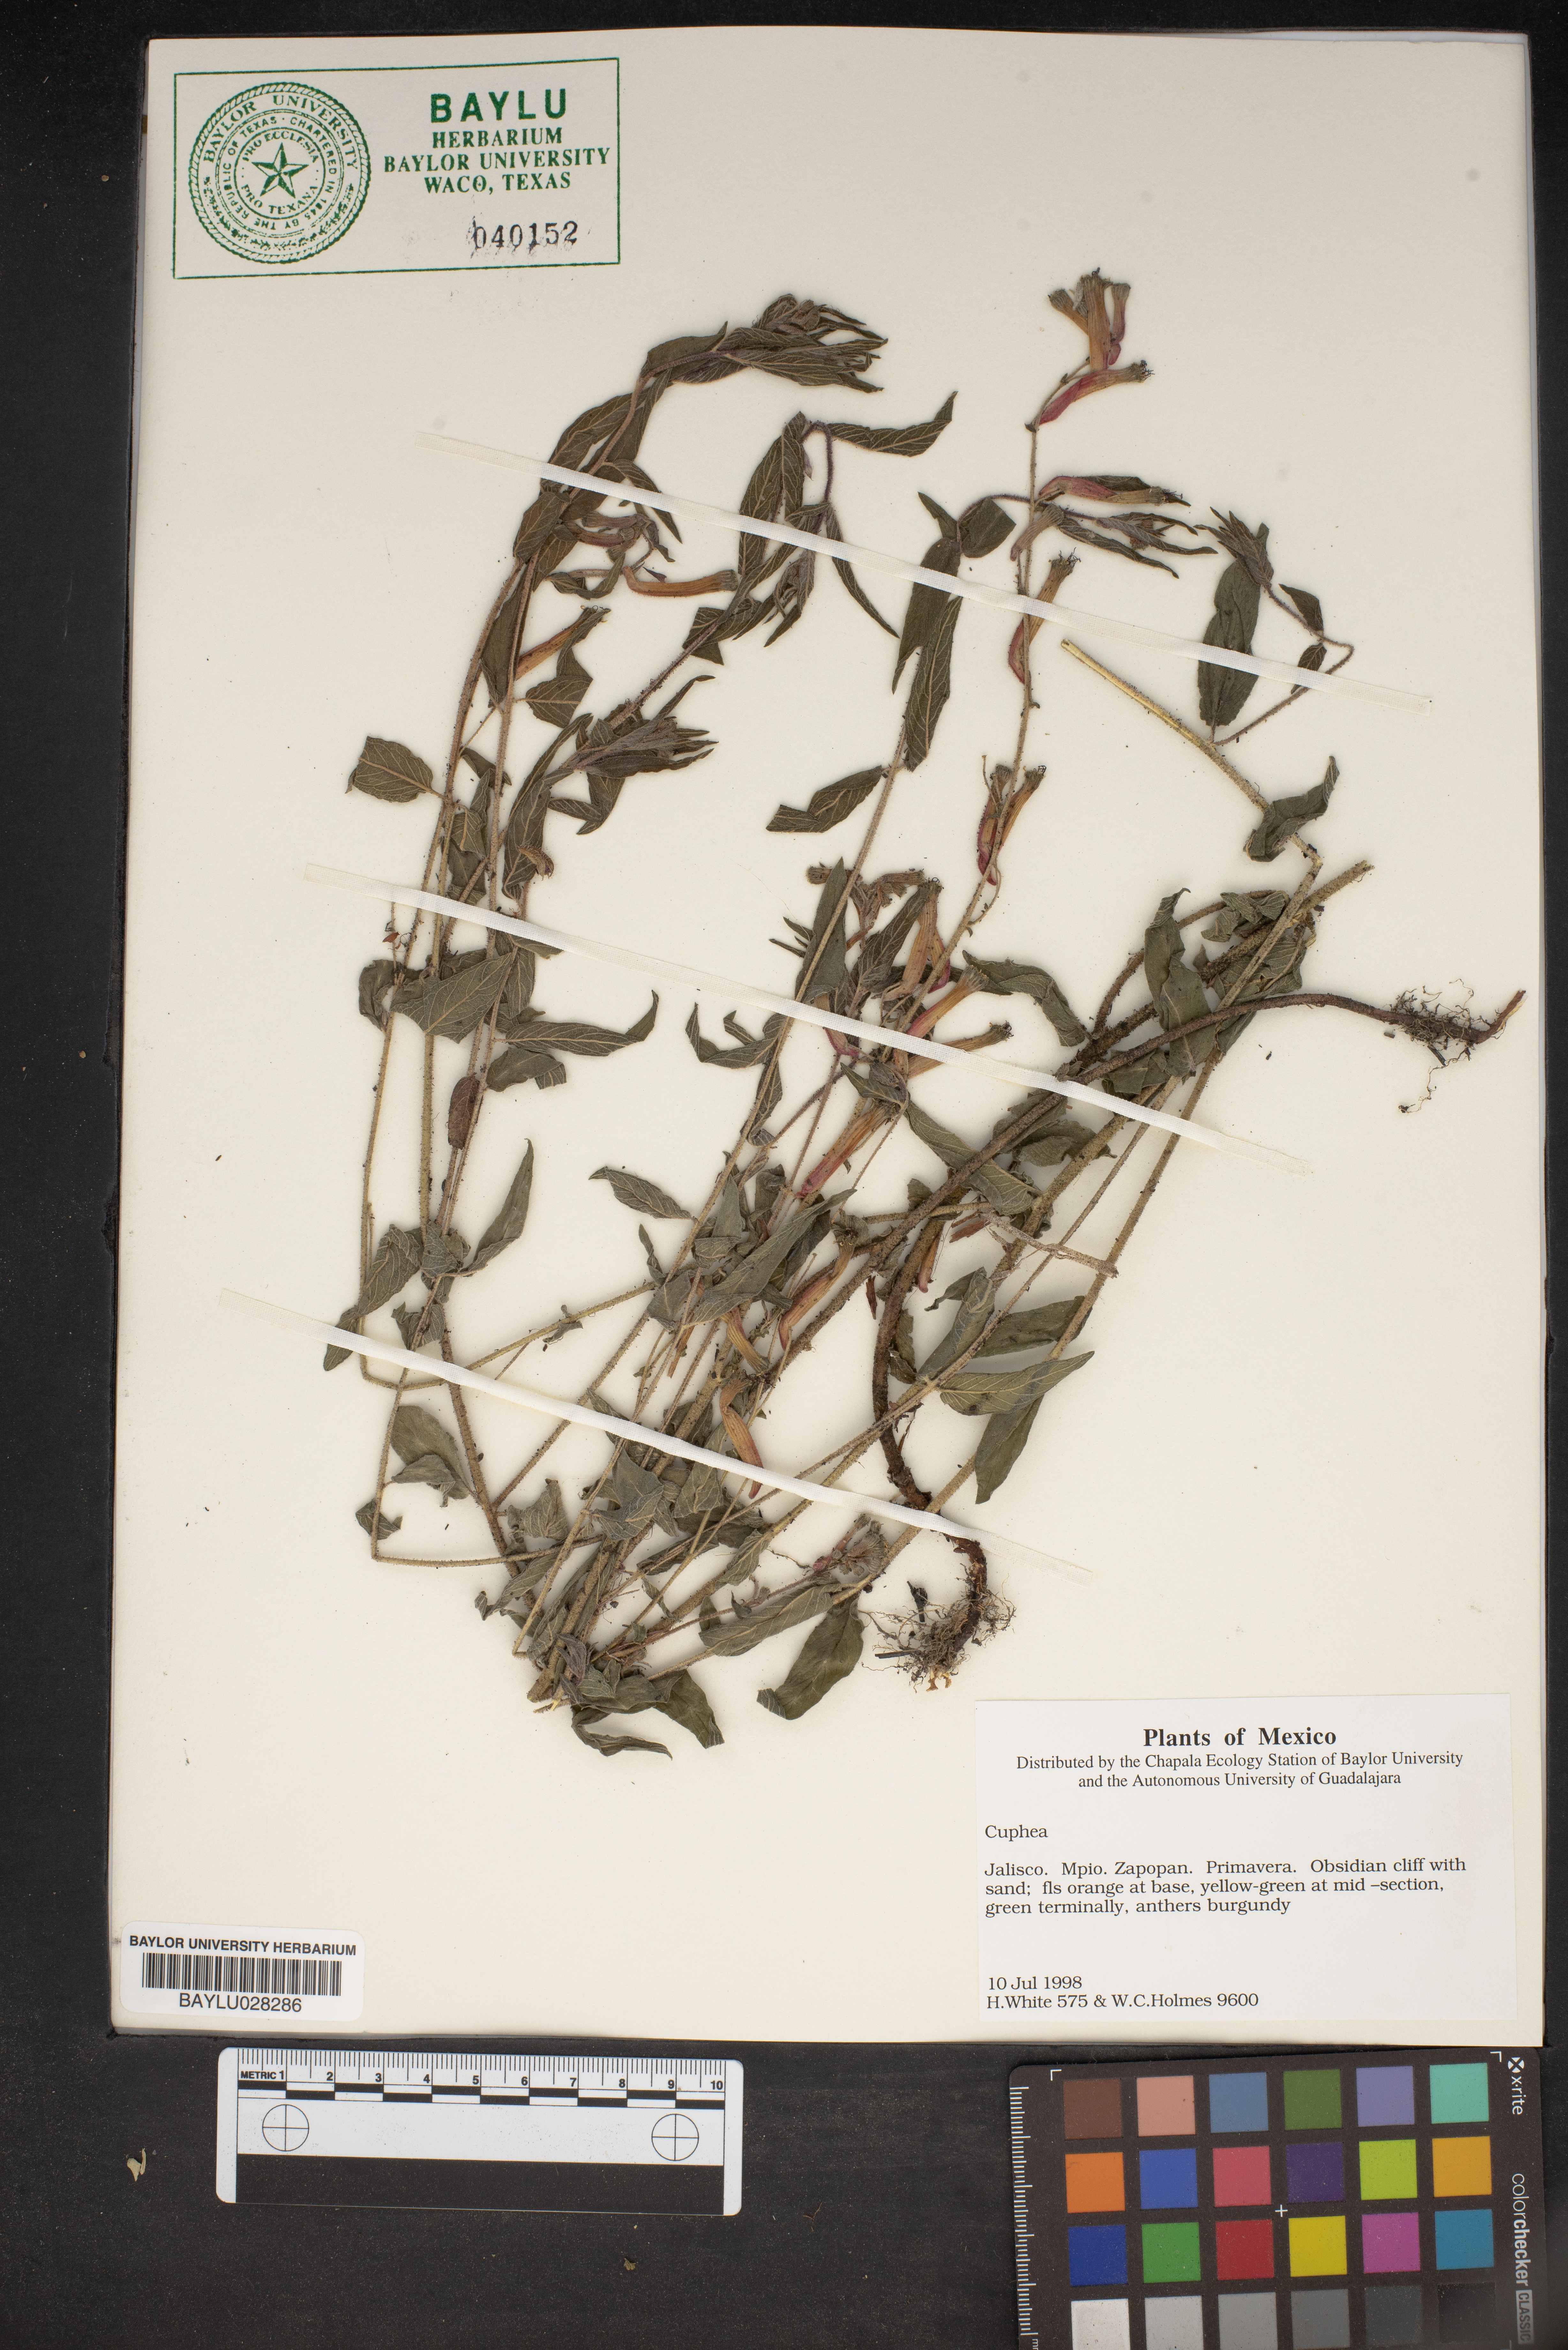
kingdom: Plantae
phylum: Tracheophyta
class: Magnoliopsida
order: Myrtales
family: Lythraceae
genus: Cuphea
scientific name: Cuphea
